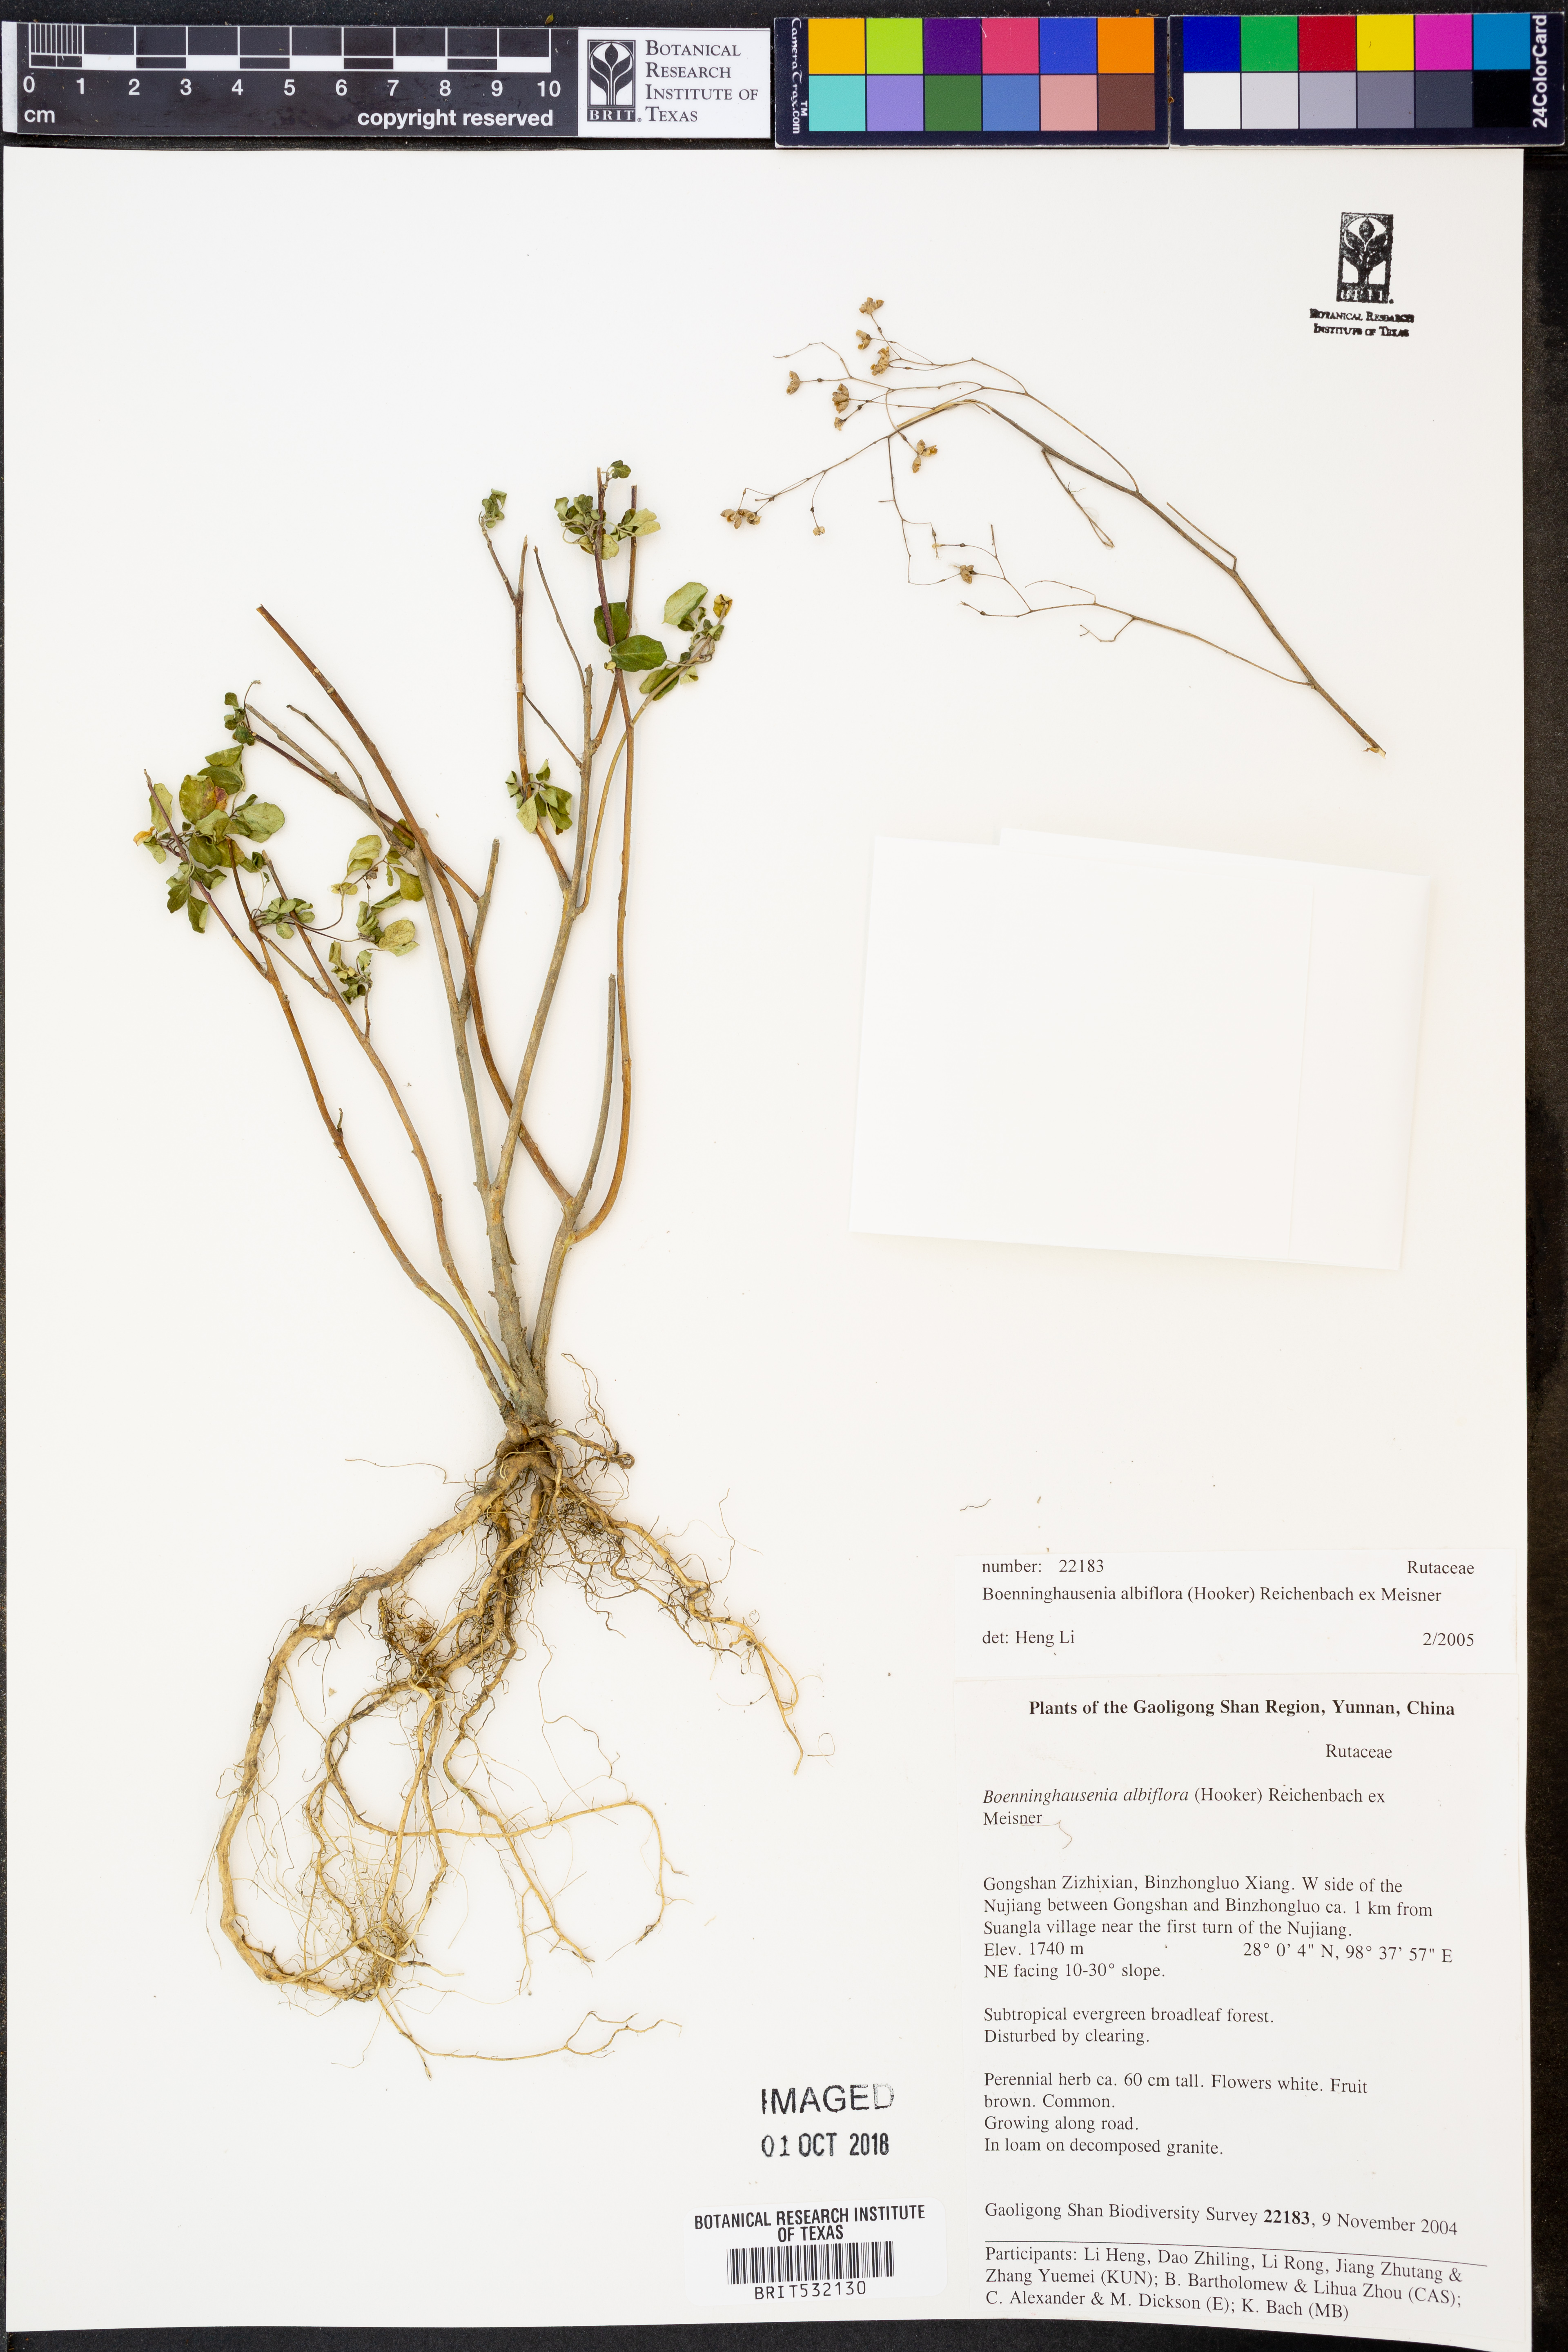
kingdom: Plantae
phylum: Tracheophyta
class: Magnoliopsida
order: Sapindales
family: Rutaceae
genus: Boenninghausenia
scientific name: Boenninghausenia albiflora
